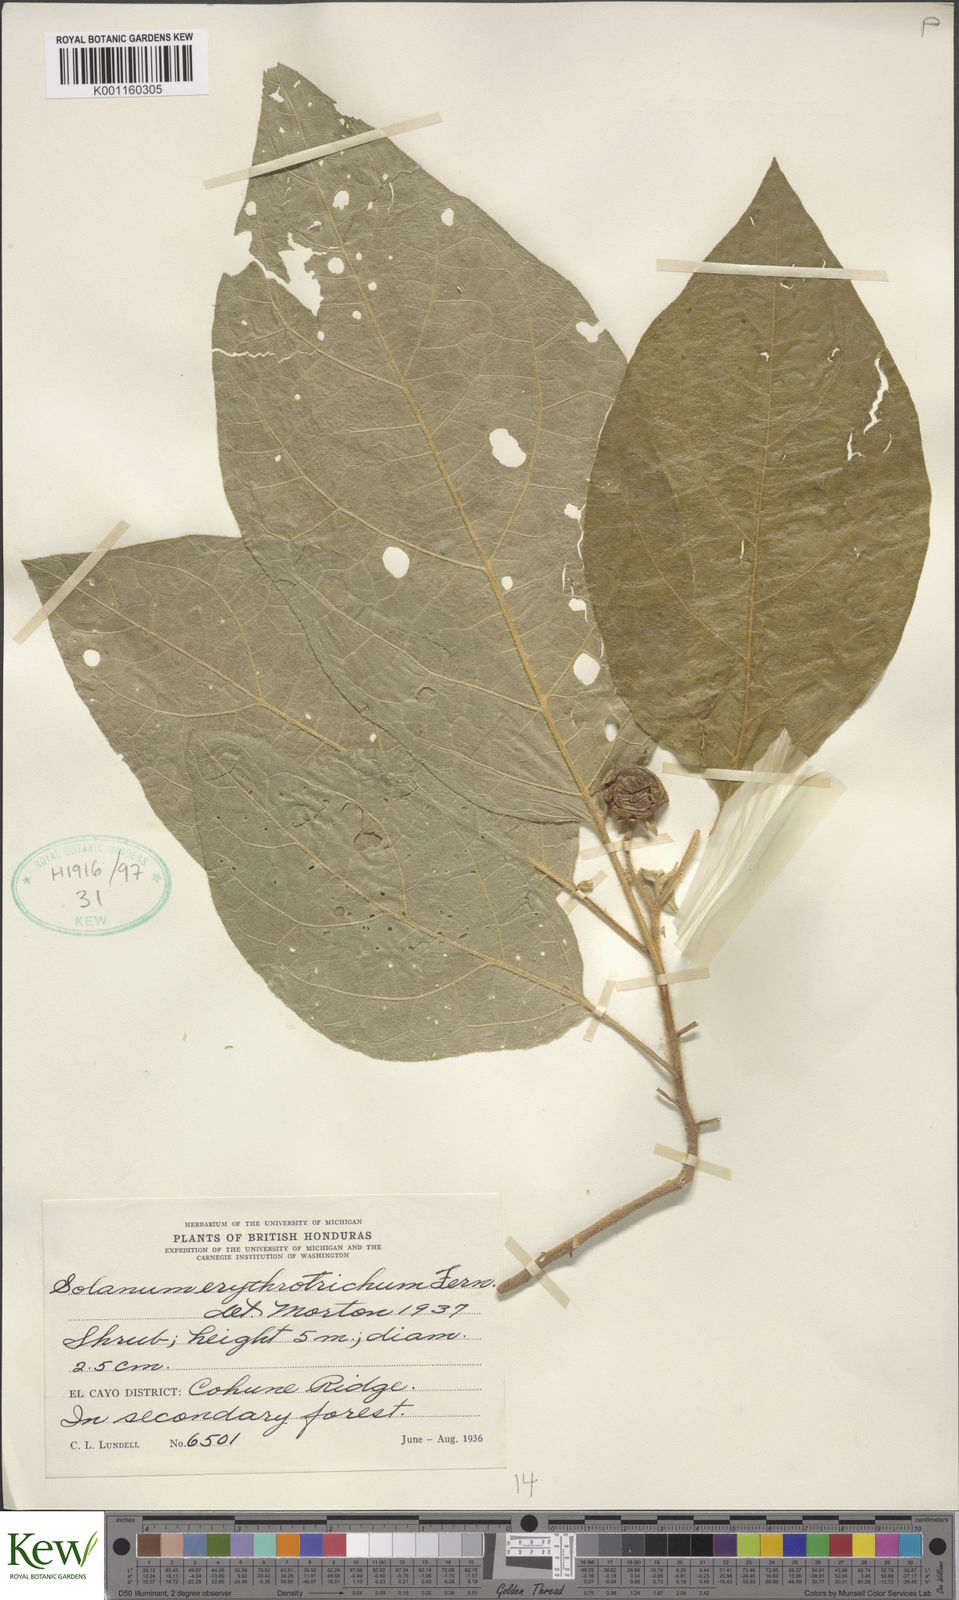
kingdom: Plantae
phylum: Tracheophyta
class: Magnoliopsida
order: Solanales
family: Solanaceae
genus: Solanum
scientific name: Solanum erythrotrichum
